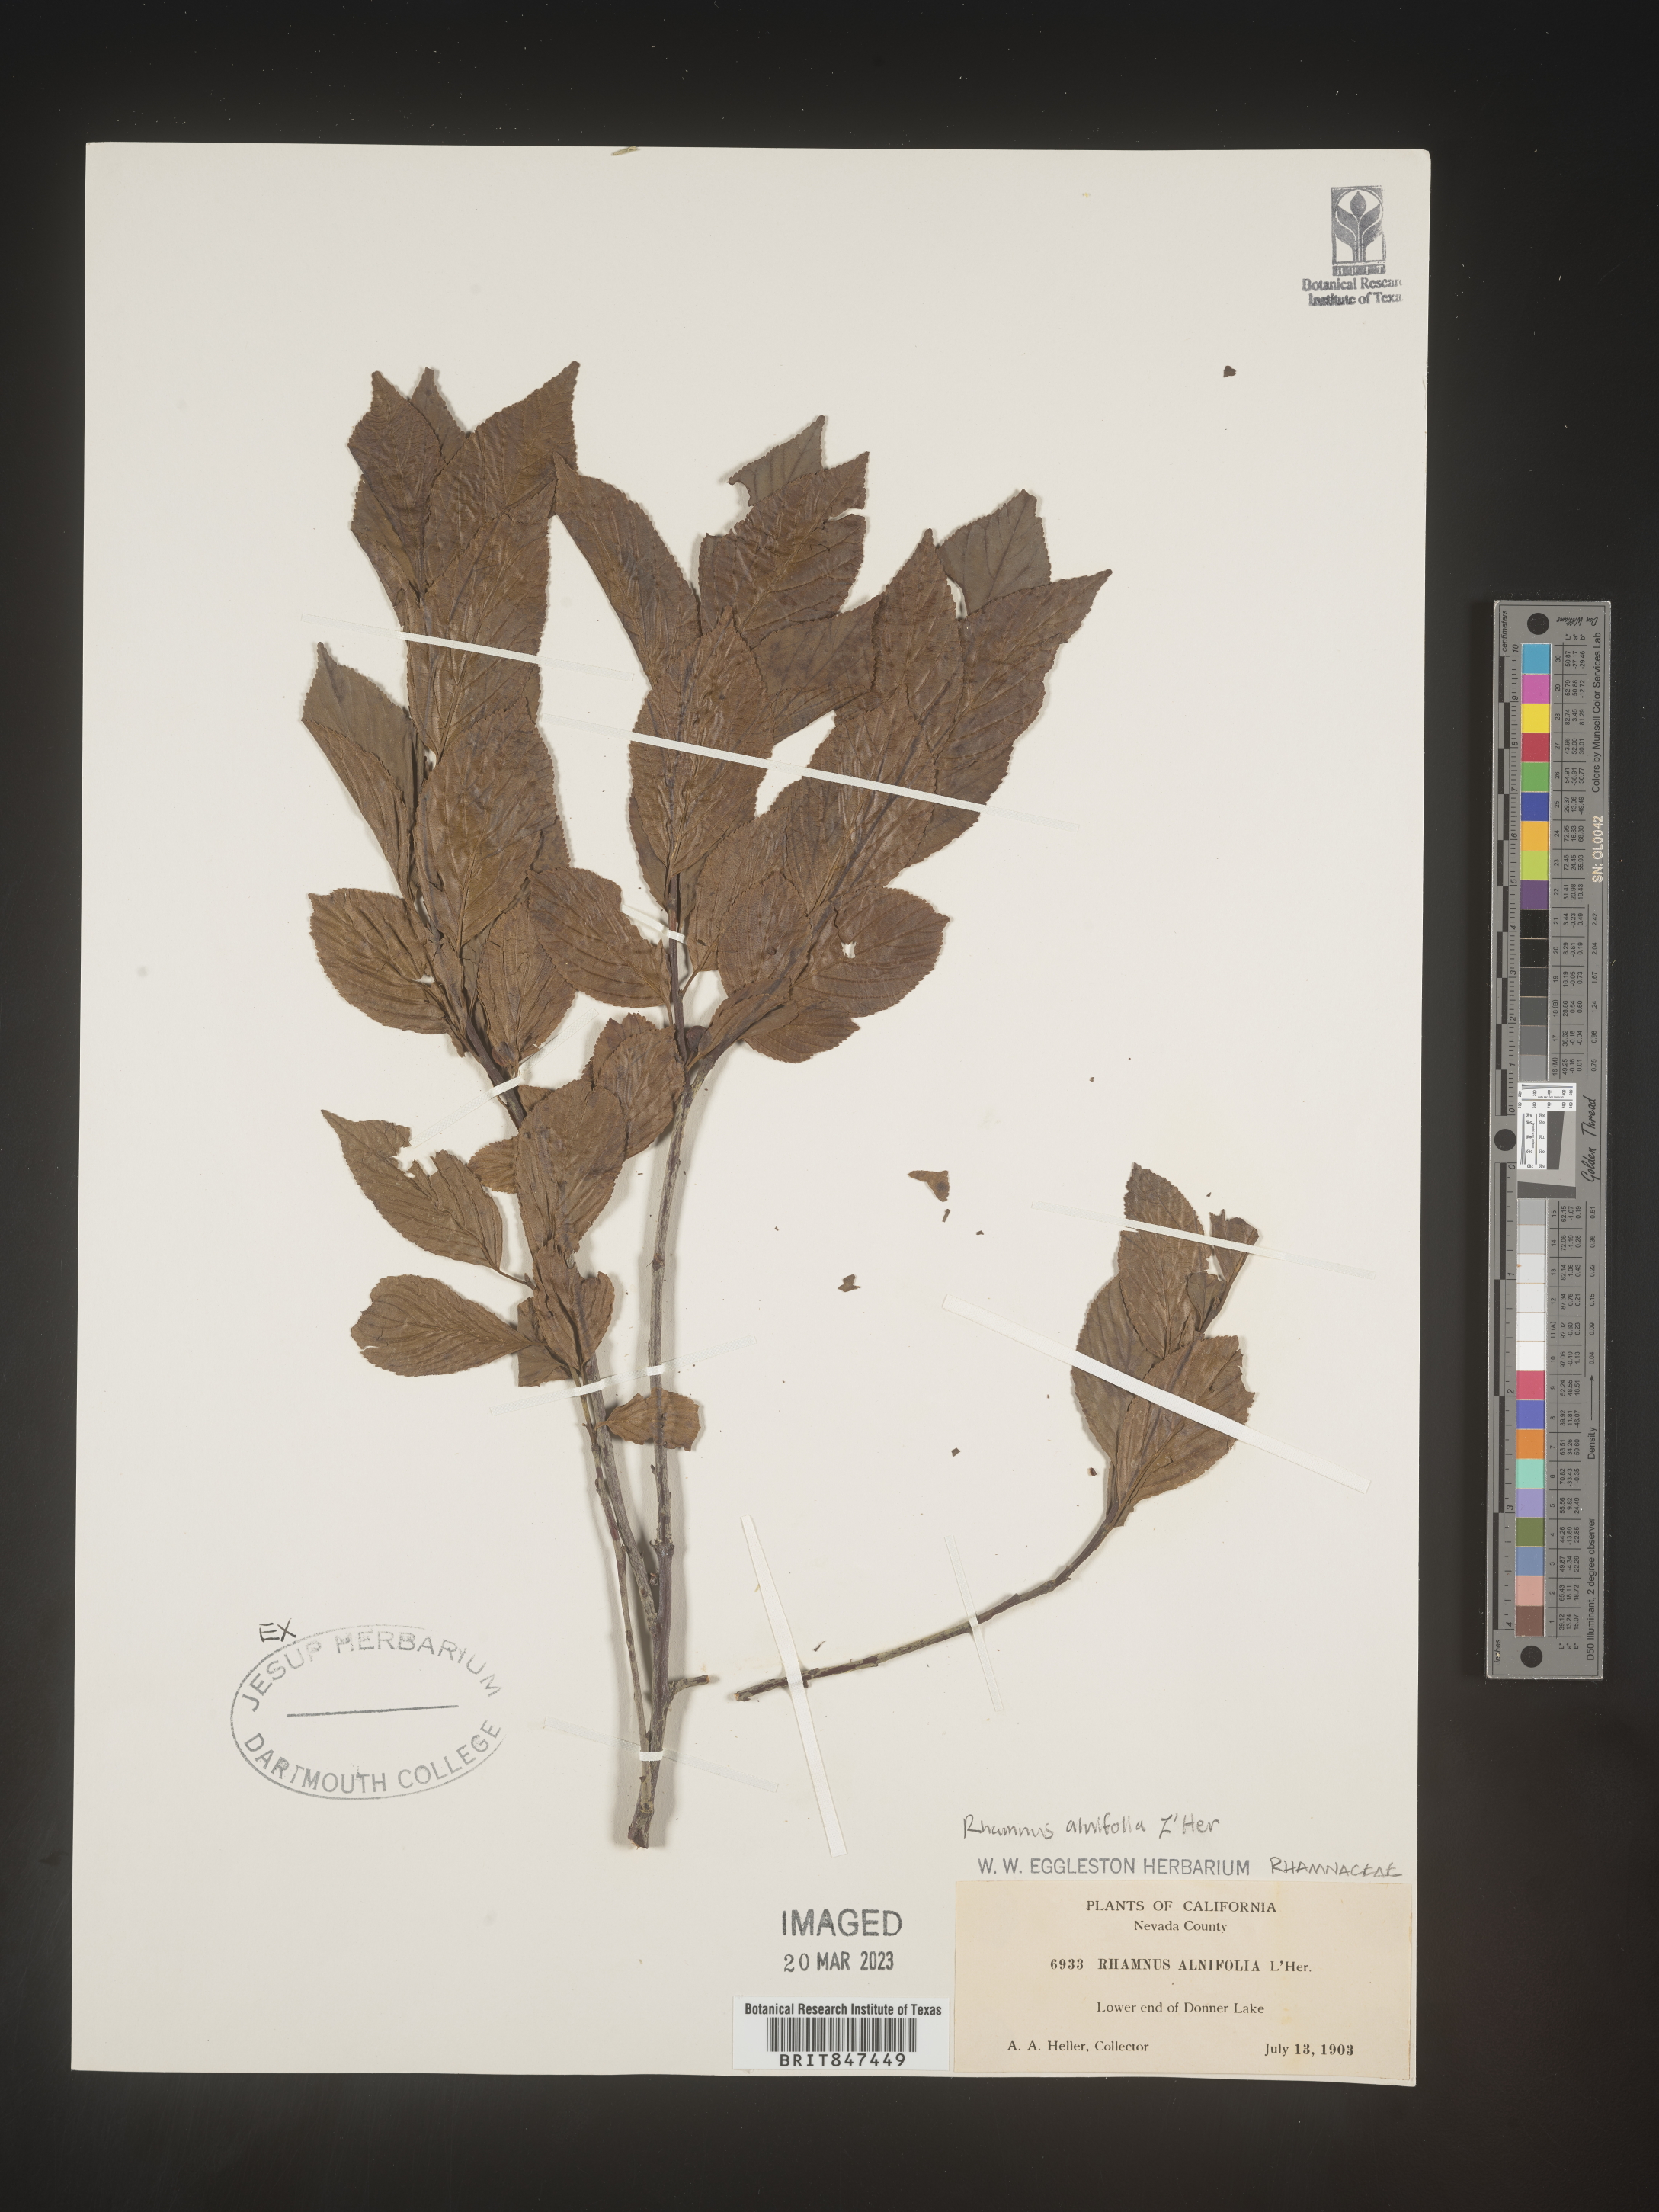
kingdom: Plantae
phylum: Tracheophyta
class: Magnoliopsida
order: Rosales
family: Rhamnaceae
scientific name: Rhamnaceae
